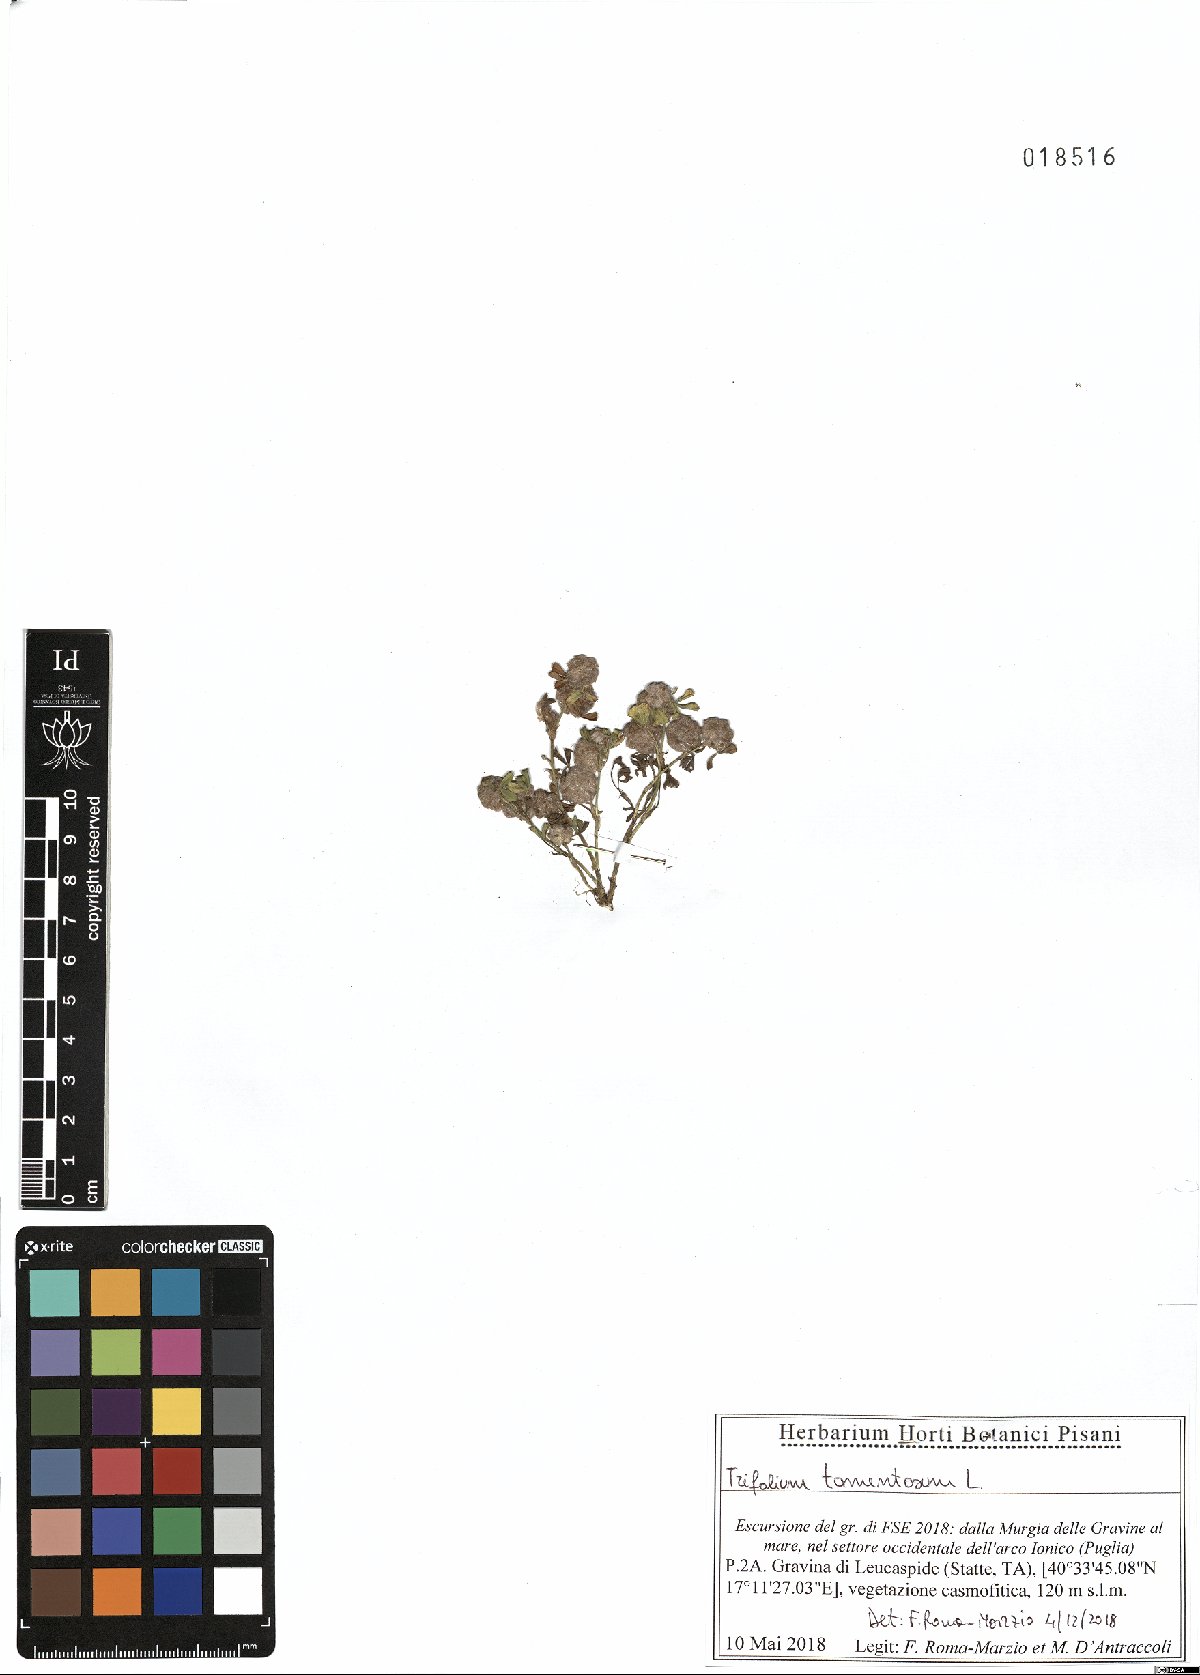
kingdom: Plantae
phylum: Tracheophyta
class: Magnoliopsida
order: Fabales
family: Fabaceae
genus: Trifolium
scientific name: Trifolium tomentosum
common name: Woolly clover
